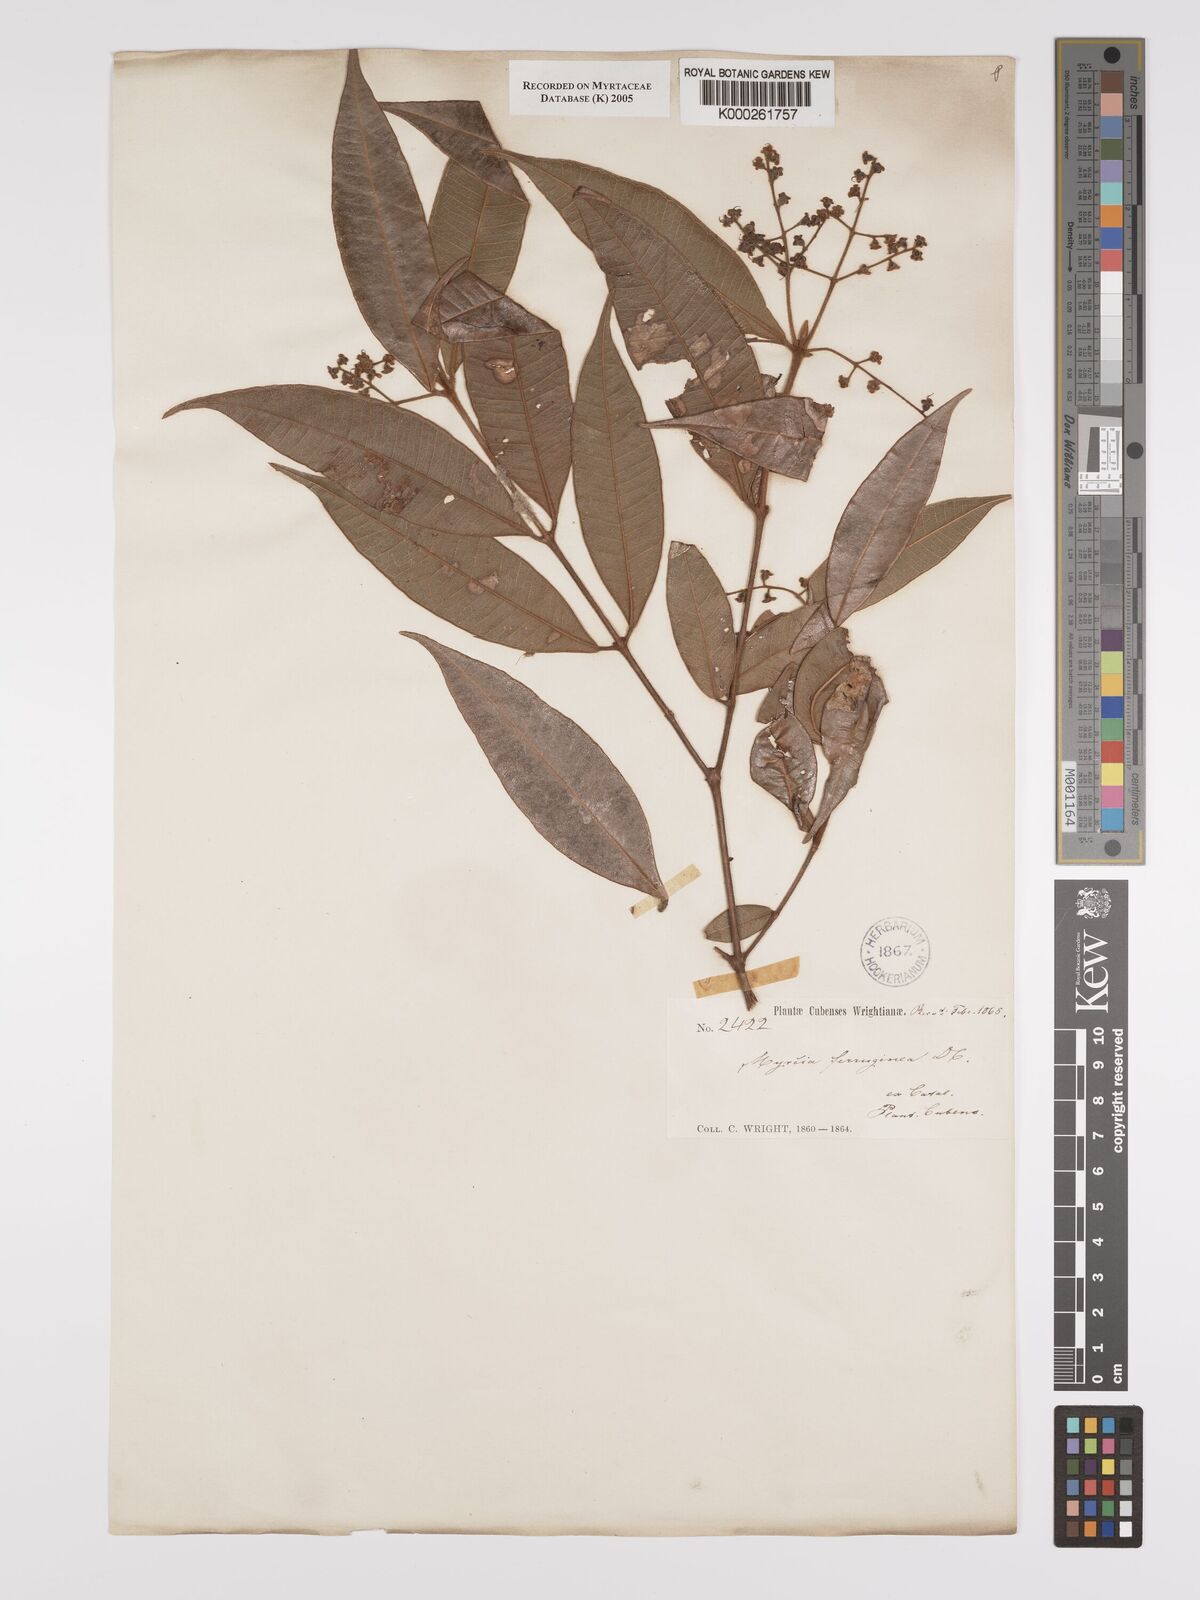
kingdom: Plantae
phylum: Tracheophyta
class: Magnoliopsida
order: Myrtales
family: Myrtaceae
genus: Myrcia
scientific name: Myrcia ferruginea
